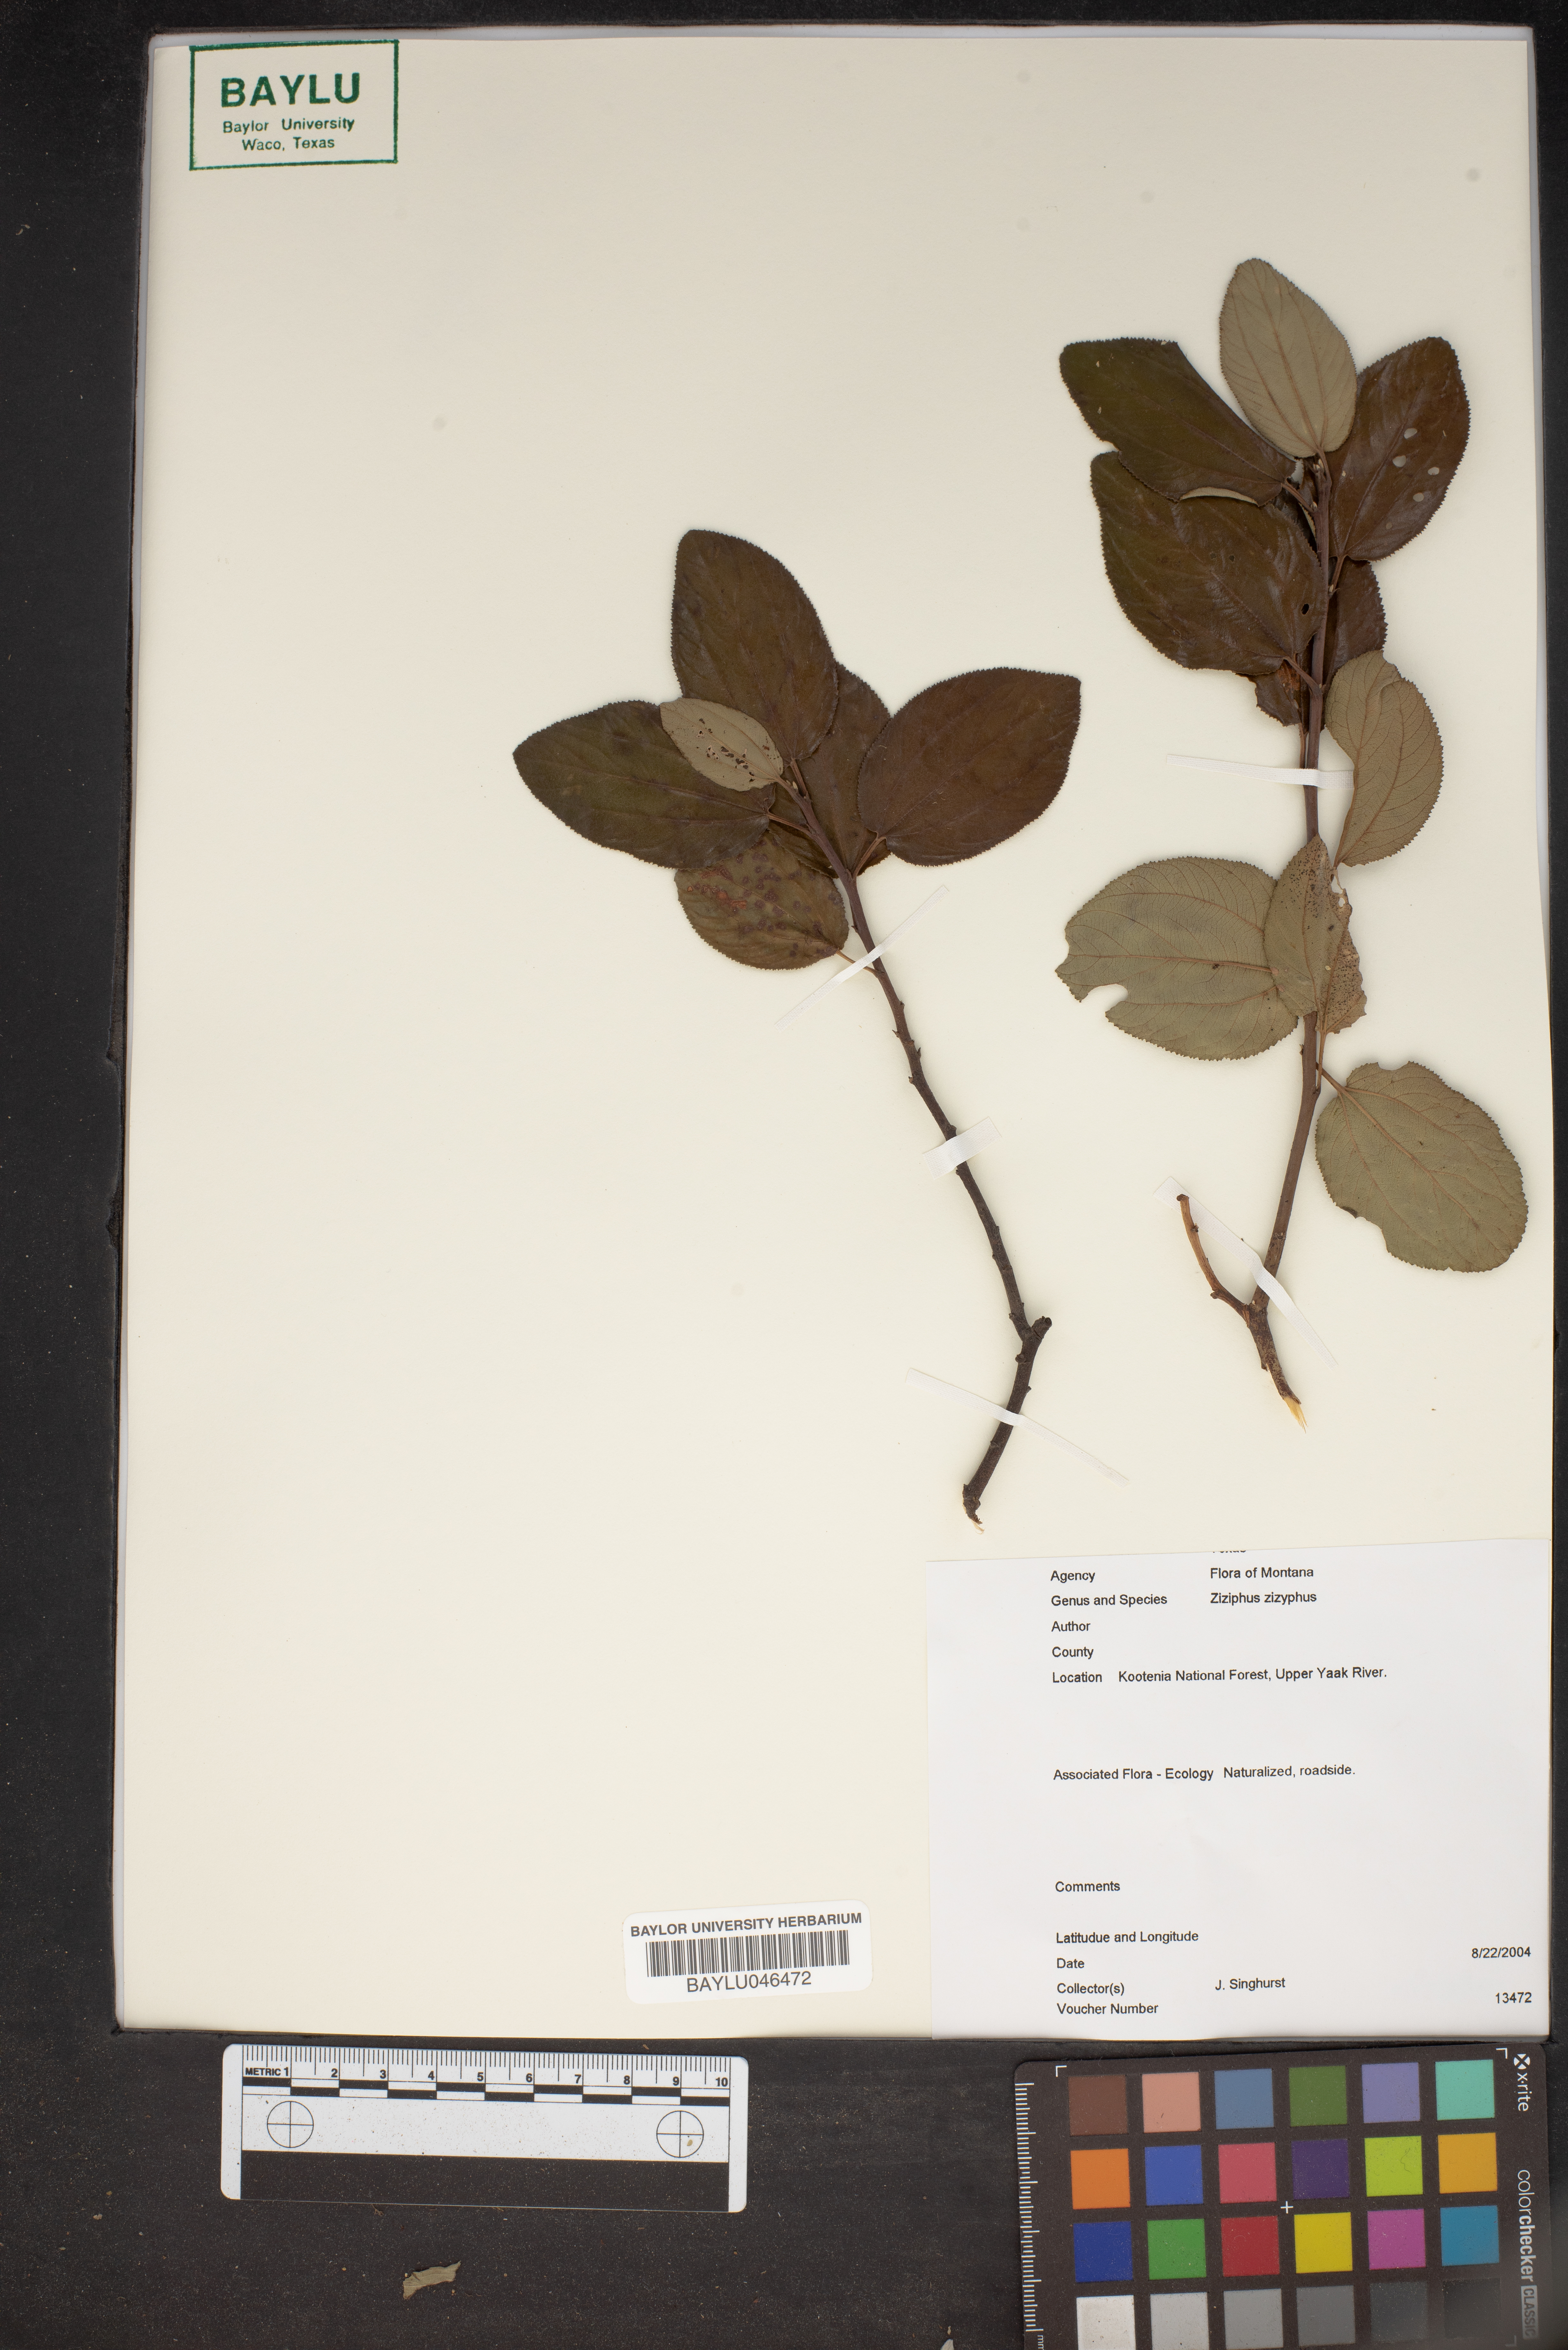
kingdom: Plantae
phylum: Tracheophyta
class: Magnoliopsida
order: Rosales
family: Rhamnaceae
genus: Ziziphus
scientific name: Ziziphus jujuba
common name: Jujube red date
